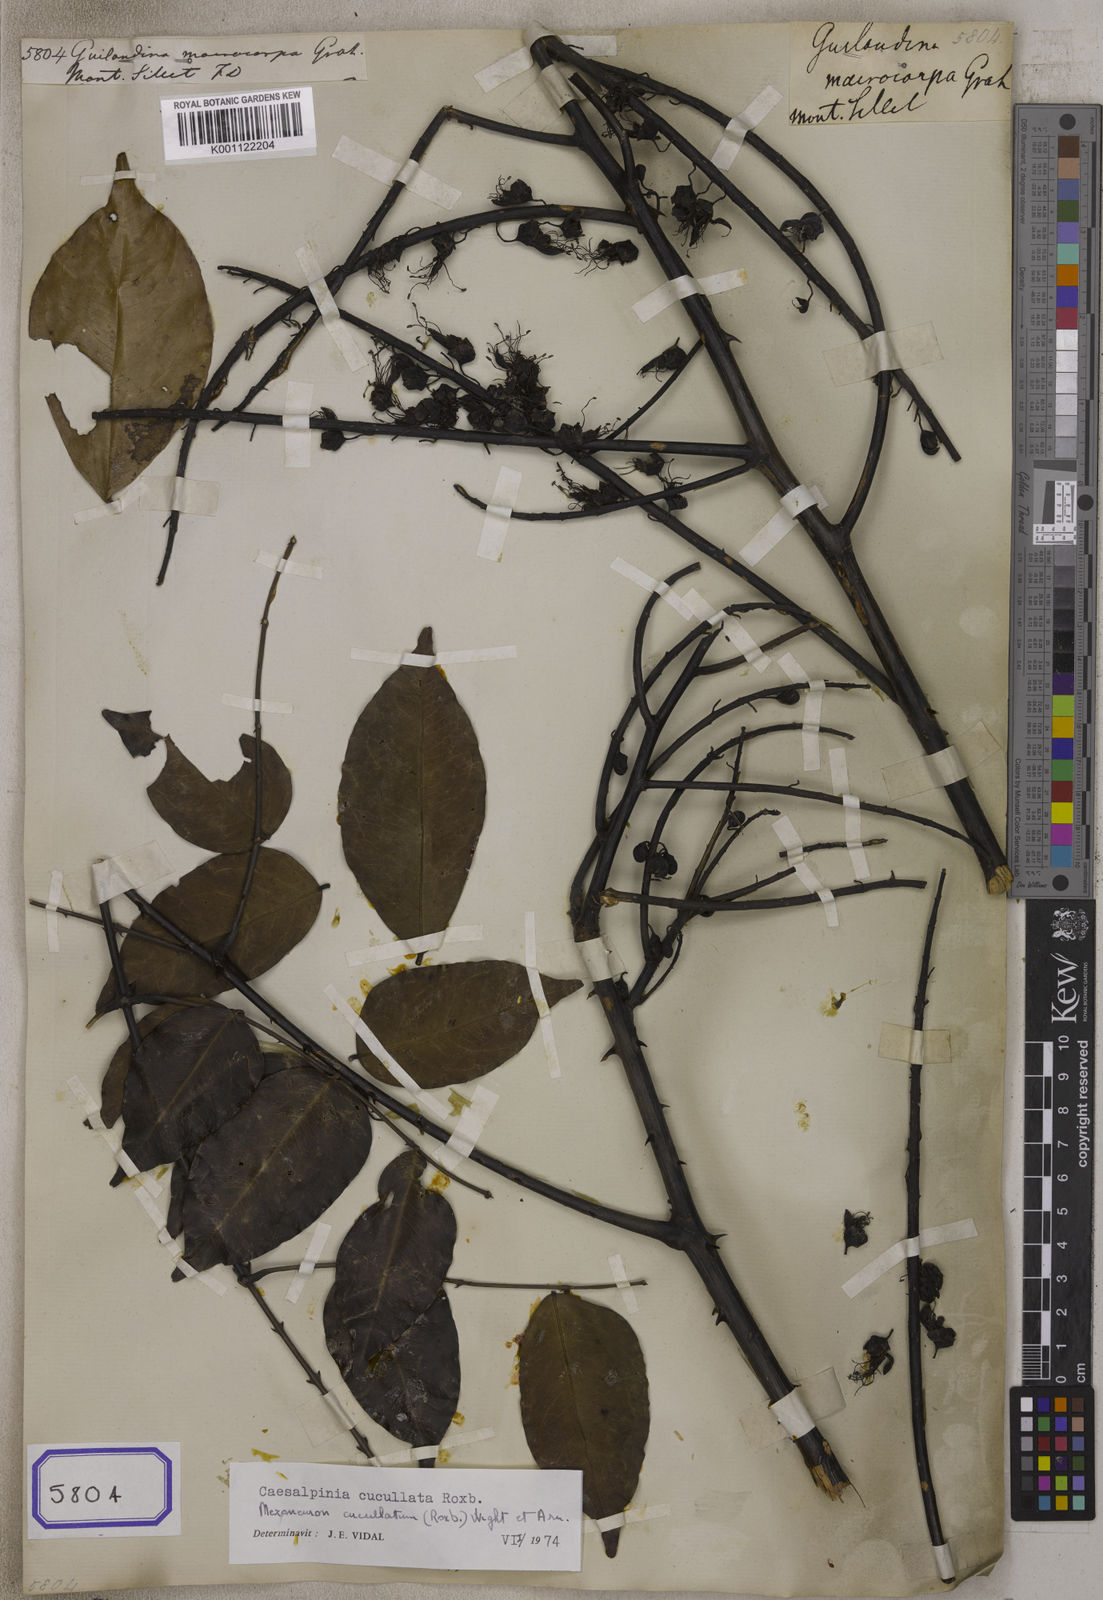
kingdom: Plantae
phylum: Tracheophyta
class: Magnoliopsida
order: Fabales
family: Fabaceae
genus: Guilandina
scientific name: Guilandina
